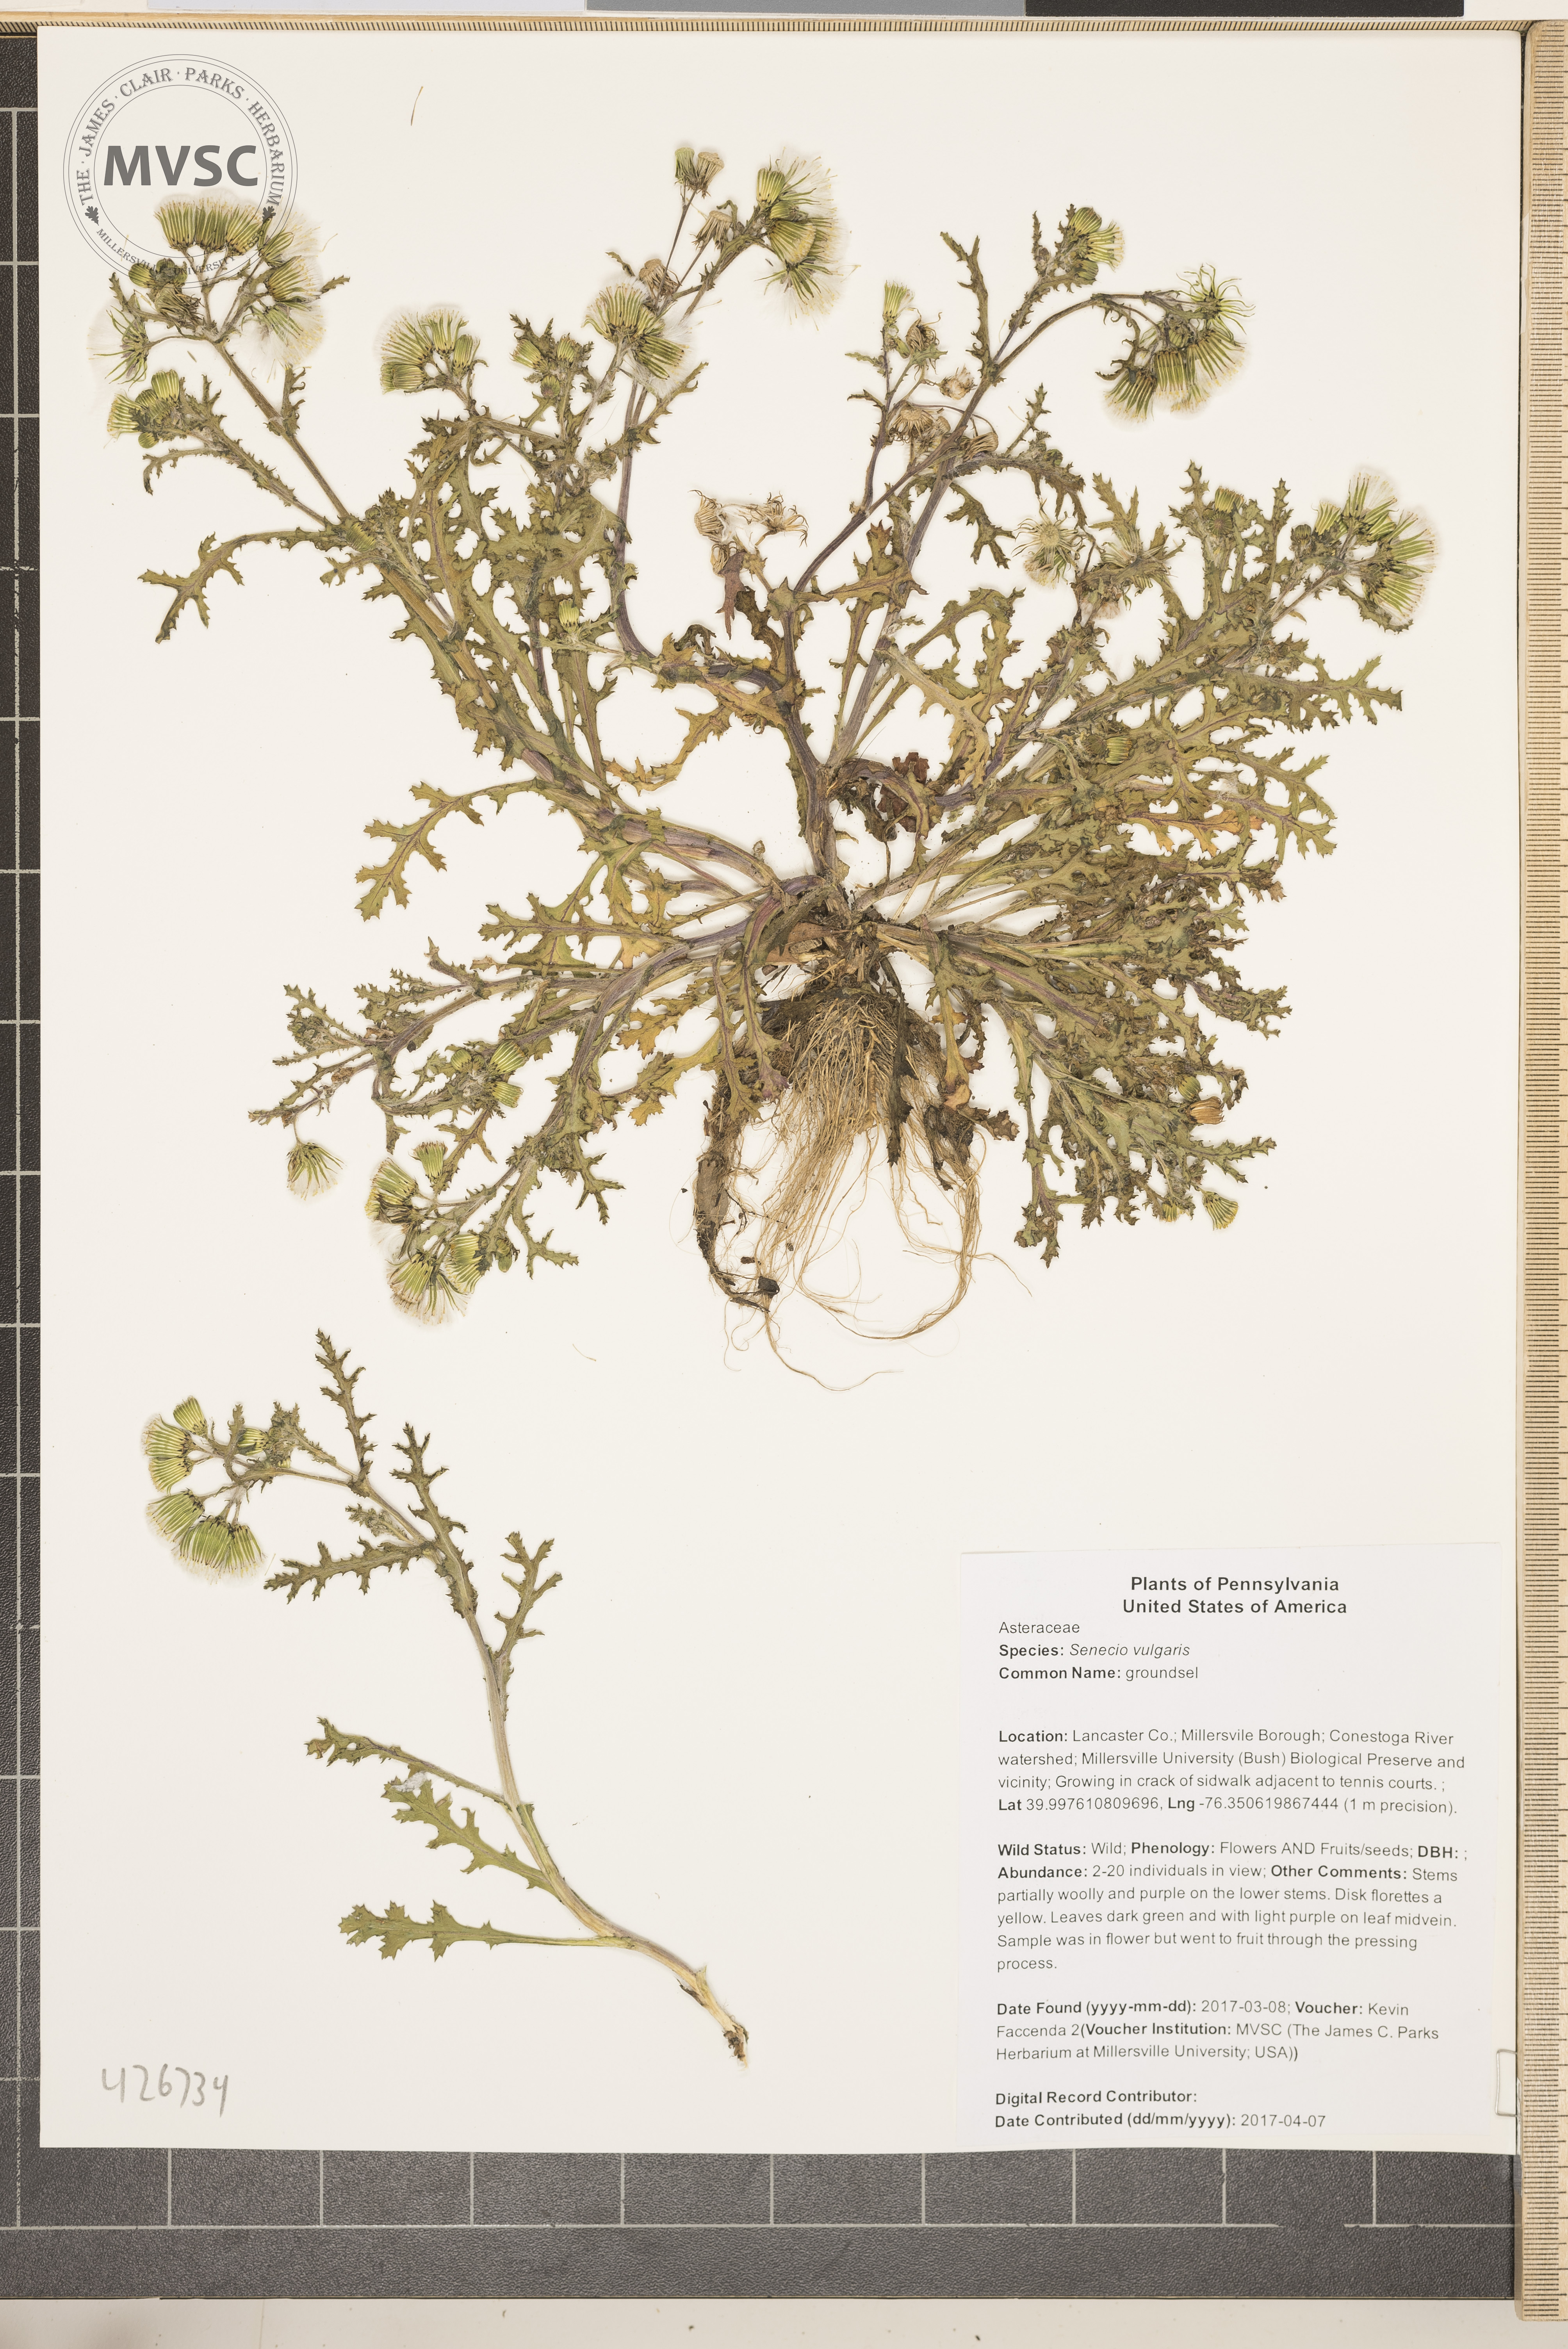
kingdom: Plantae
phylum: Tracheophyta
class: Magnoliopsida
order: Asterales
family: Asteraceae
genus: Senecio
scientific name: Senecio vulgaris
